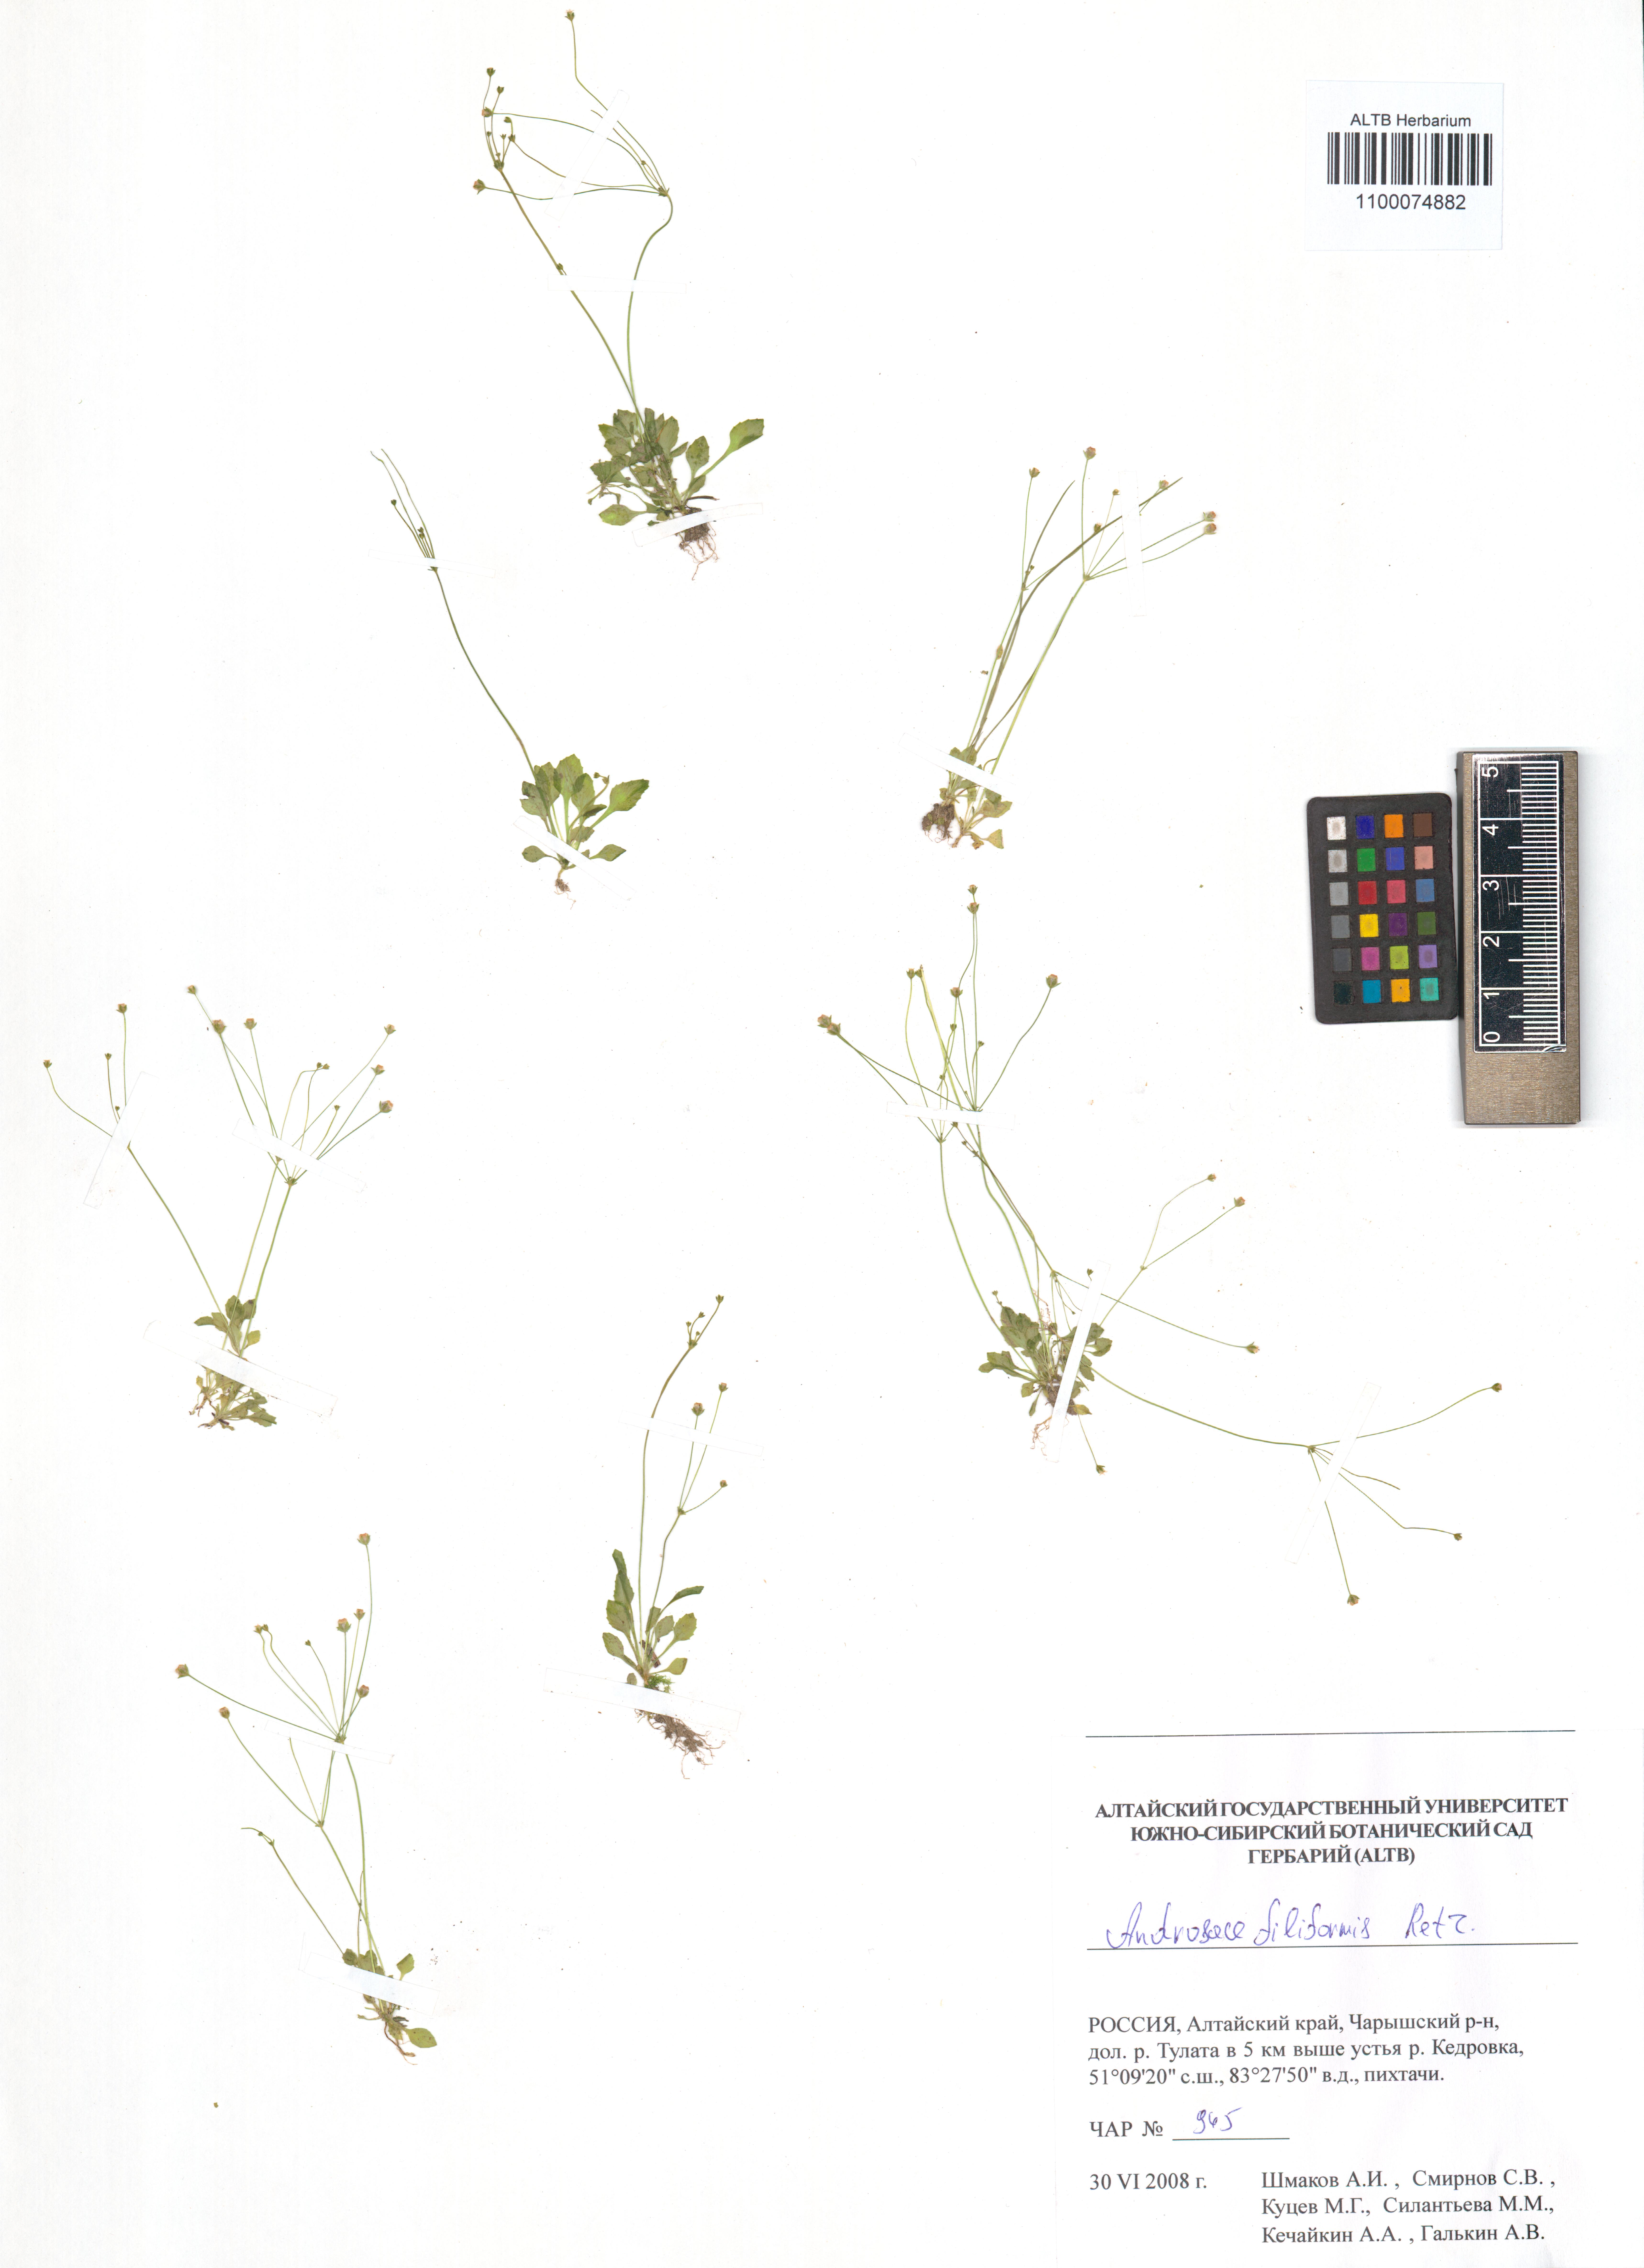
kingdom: Plantae
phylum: Tracheophyta
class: Magnoliopsida
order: Ericales
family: Primulaceae
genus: Androsace
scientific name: Androsace filiformis
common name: Filiform rock jasmine
